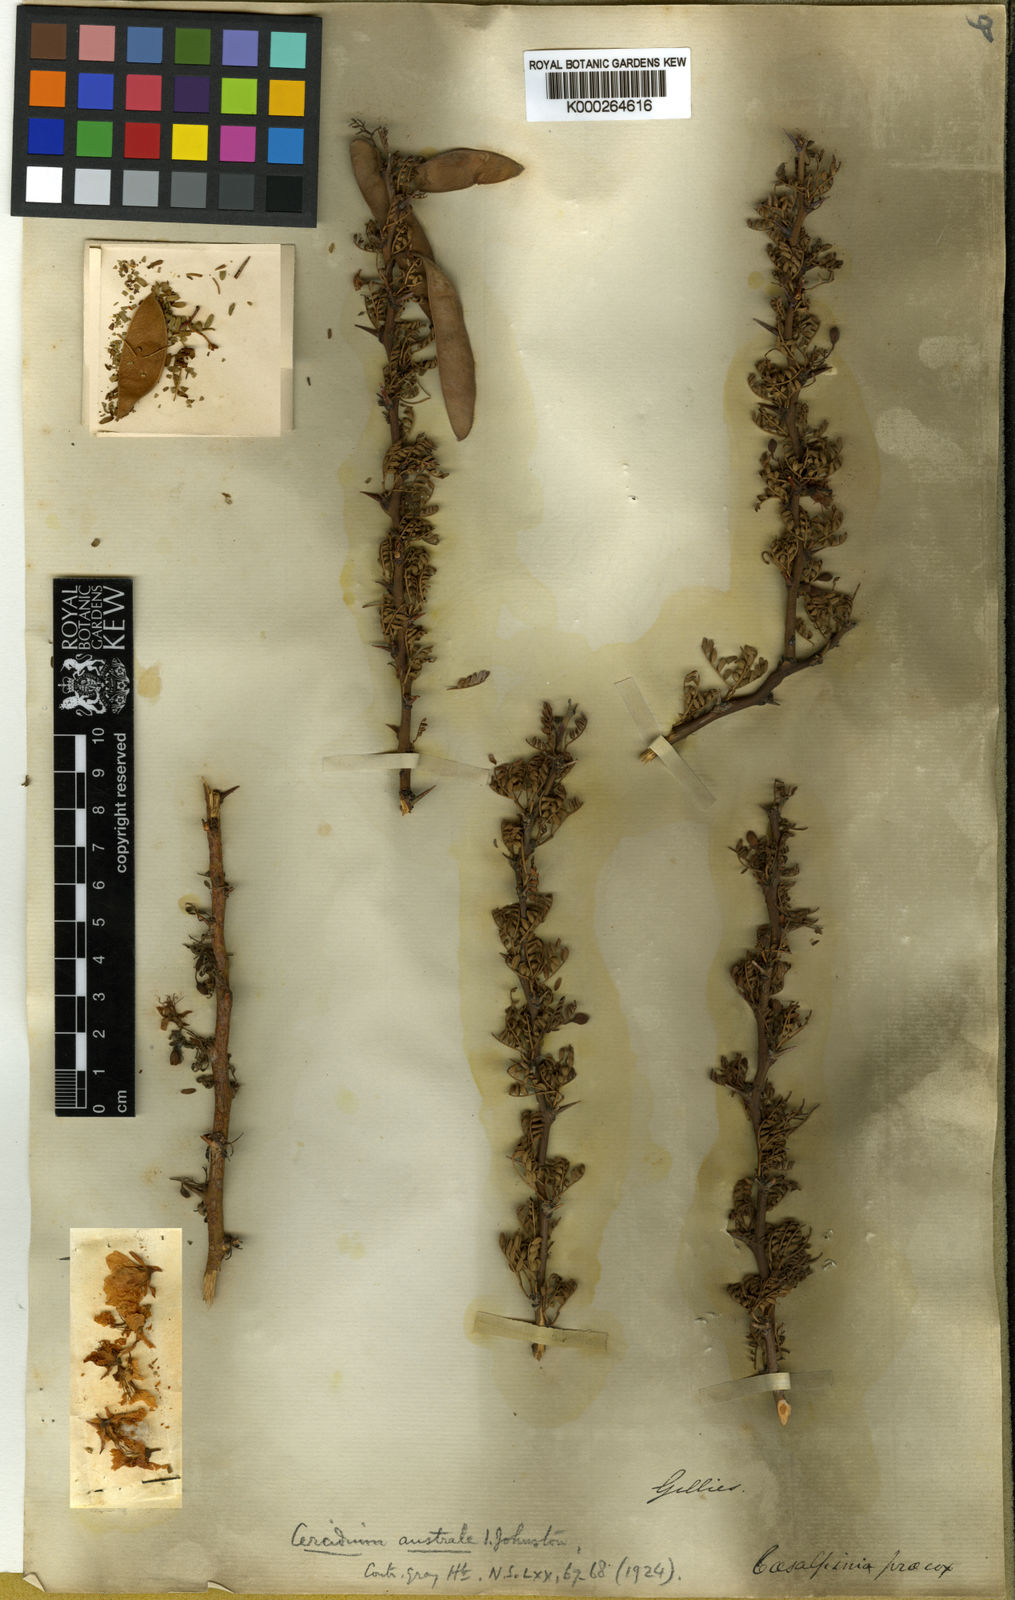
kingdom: Plantae
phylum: Tracheophyta
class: Magnoliopsida
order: Fabales
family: Fabaceae
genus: Parkinsonia
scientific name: Parkinsonia glauca
